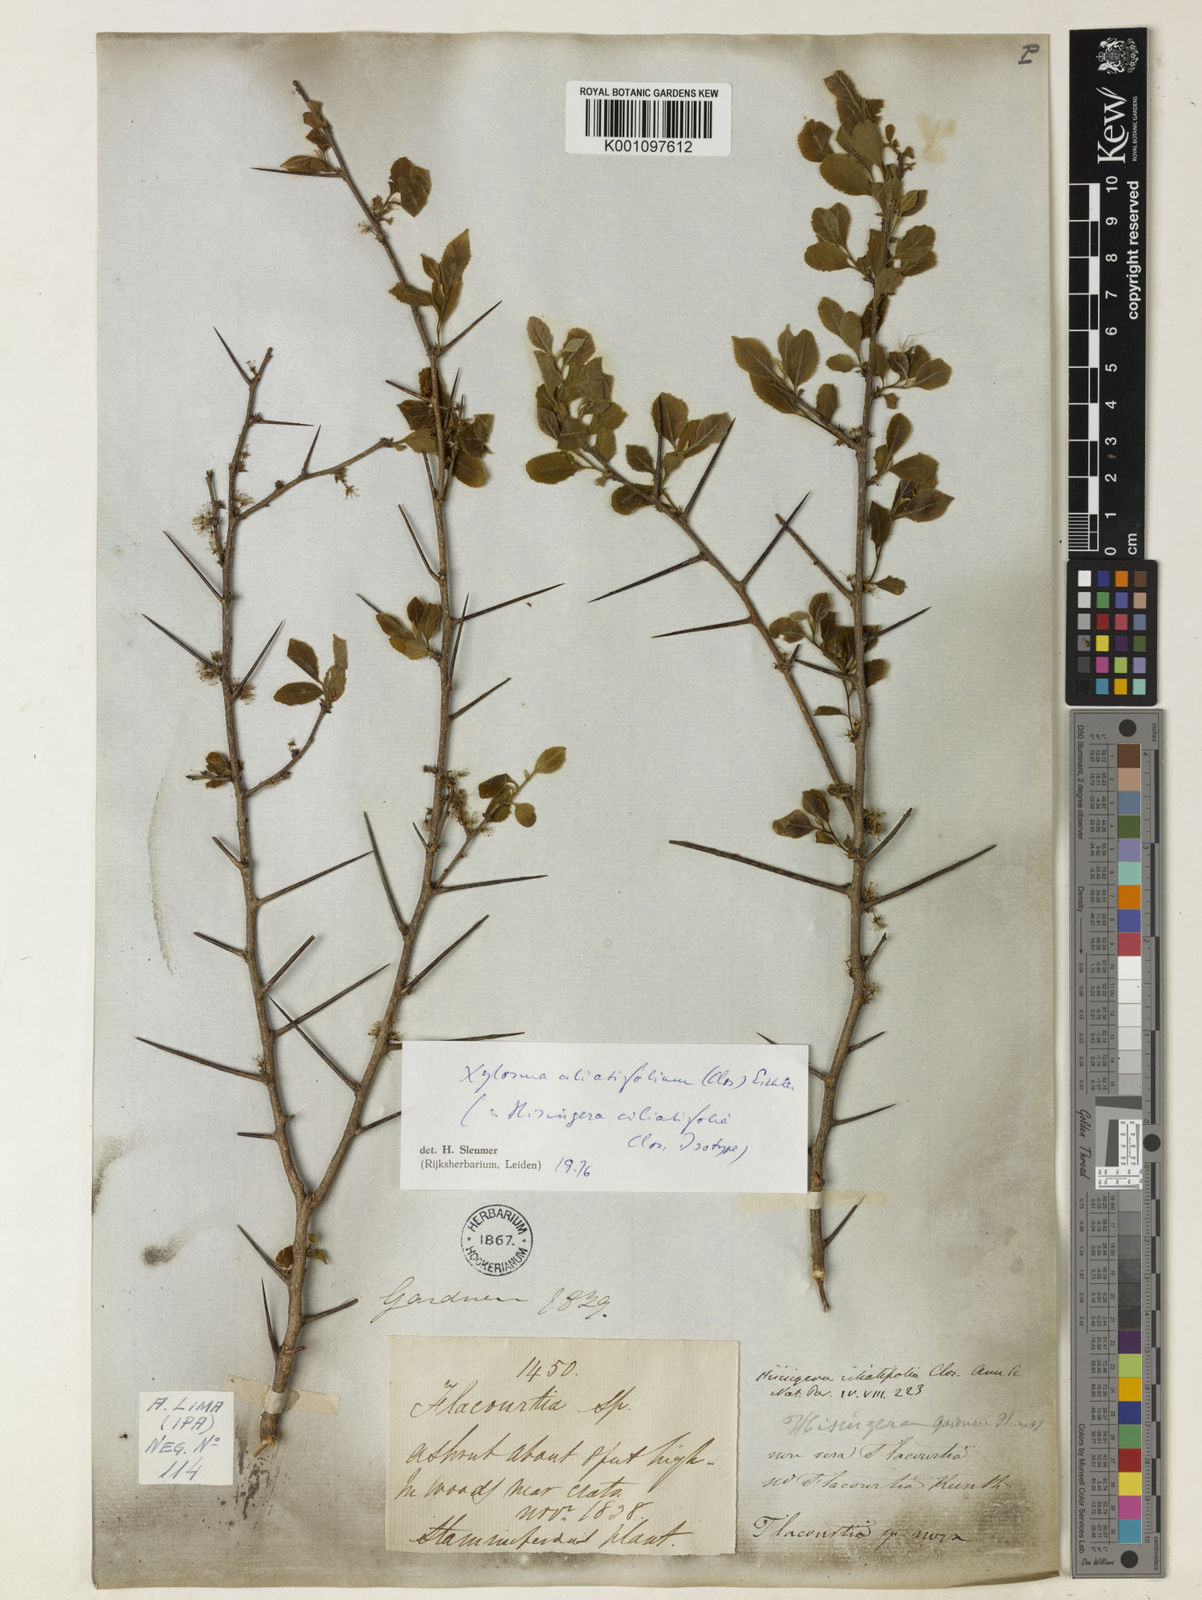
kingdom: Plantae
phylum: Tracheophyta
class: Magnoliopsida
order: Malpighiales
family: Salicaceae
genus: Xylosma
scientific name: Xylosma ciliatifolia
